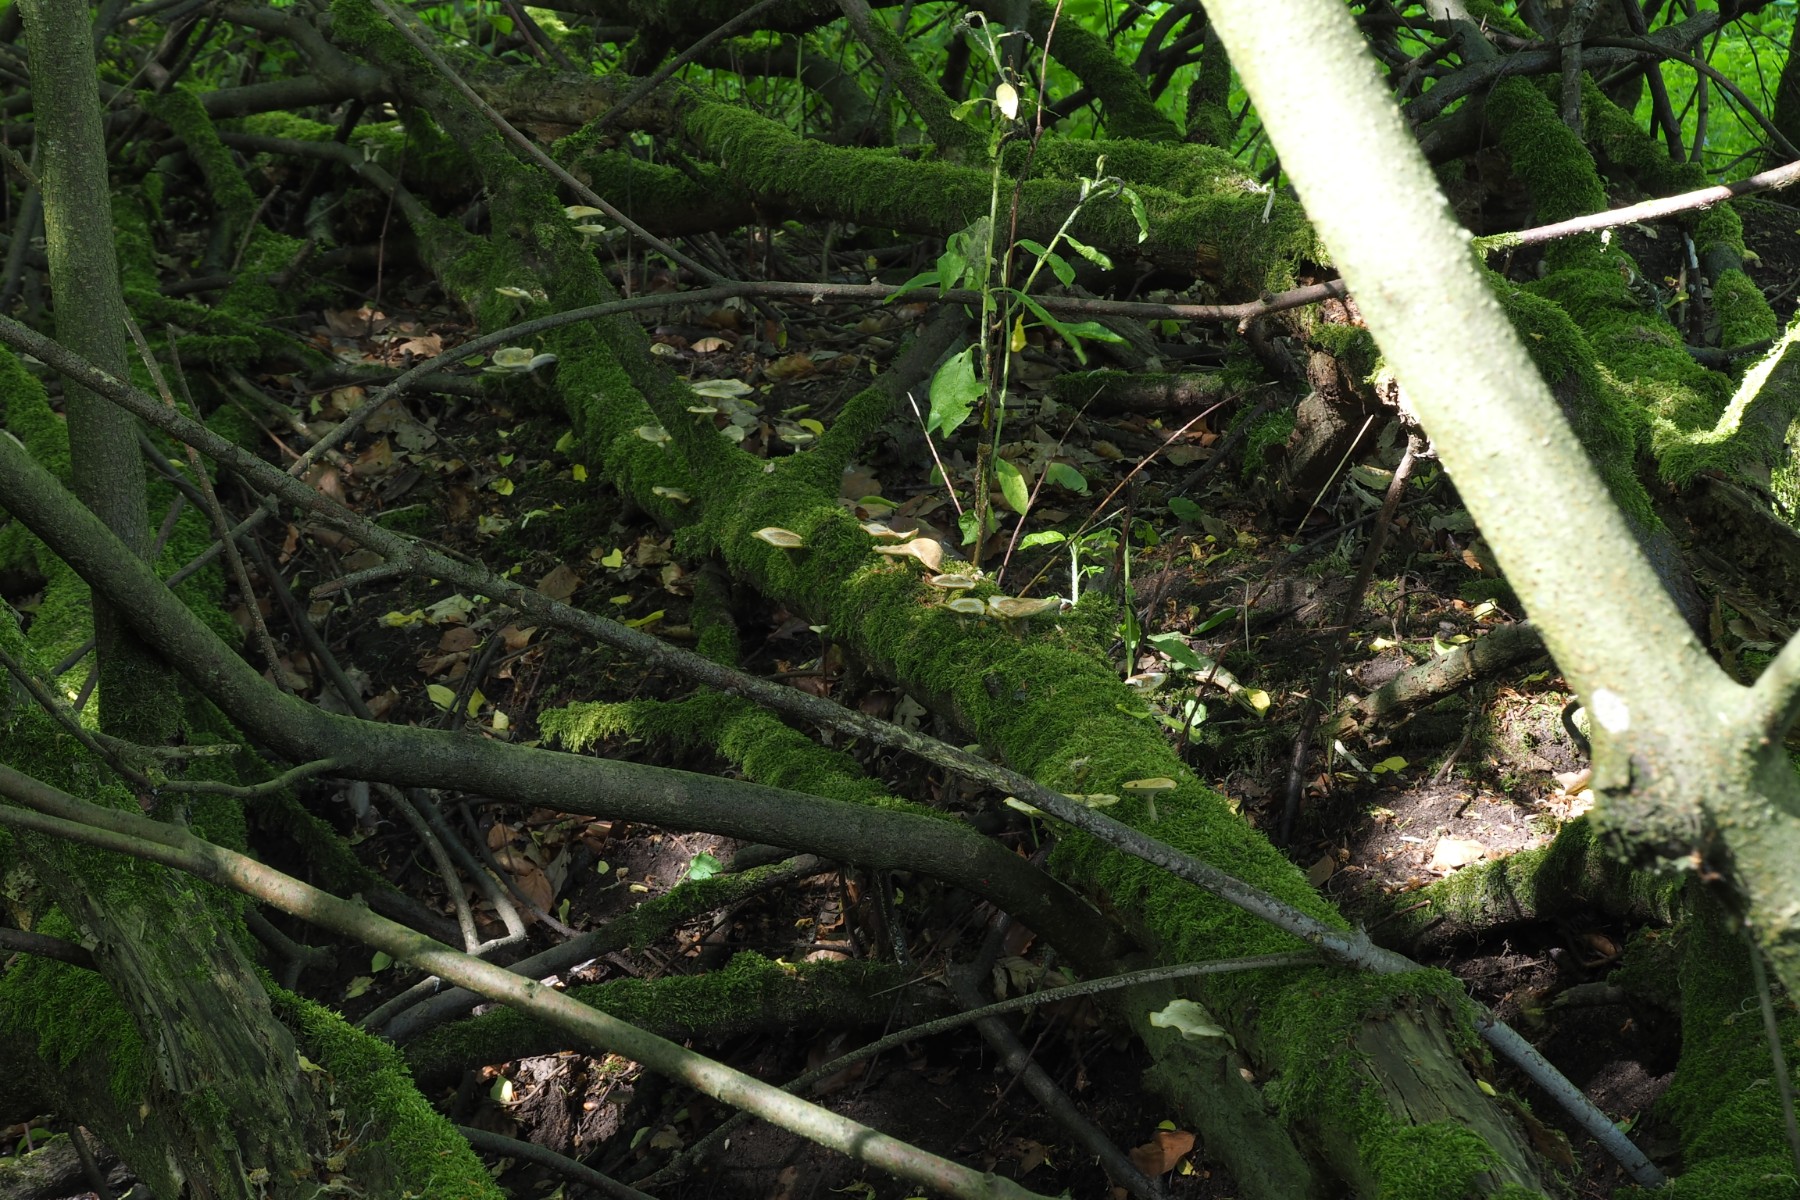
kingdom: Fungi
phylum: Basidiomycota
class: Agaricomycetes
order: Polyporales
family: Polyporaceae
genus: Lentinus
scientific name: Lentinus substrictus
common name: forårs-stilkporesvamp
